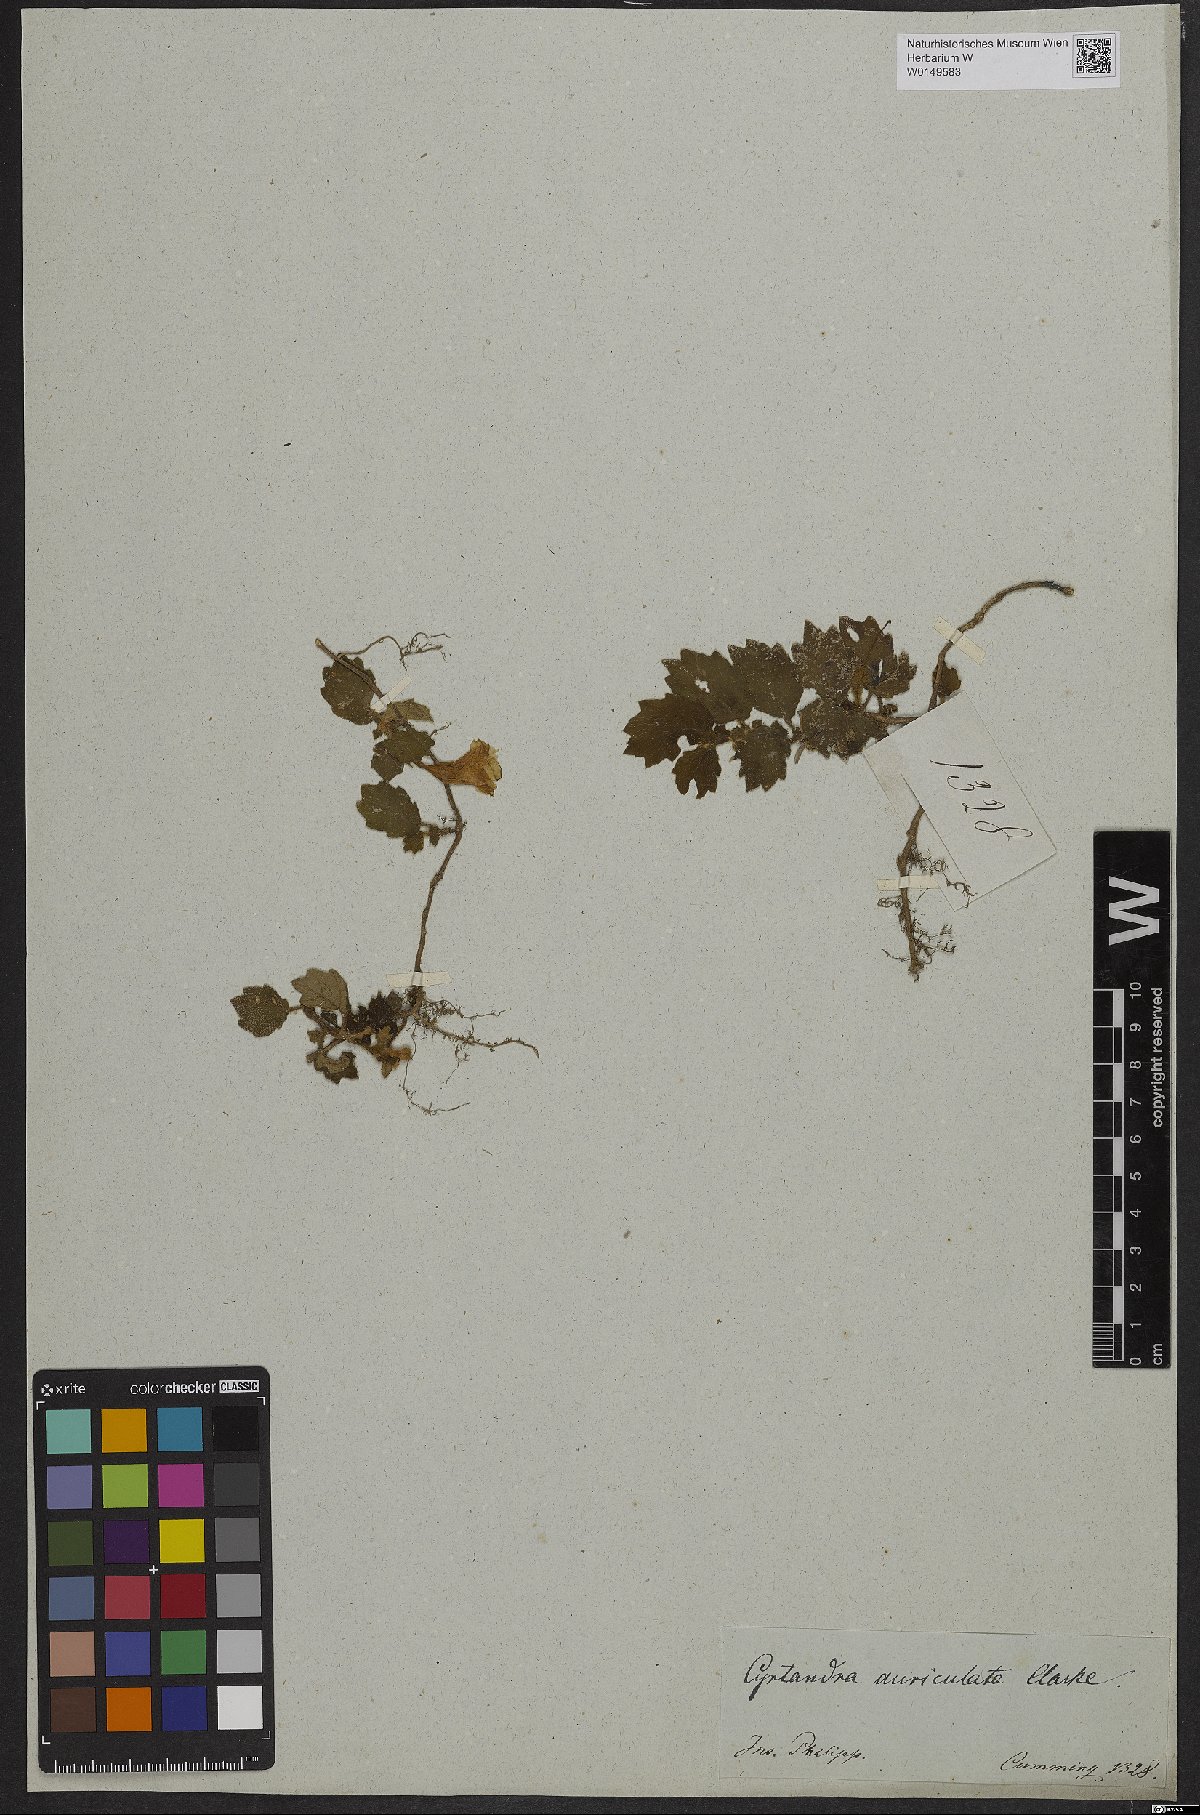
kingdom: Plantae
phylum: Tracheophyta
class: Magnoliopsida
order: Lamiales
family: Gesneriaceae
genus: Cyrtandra
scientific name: Cyrtandra auriculata
